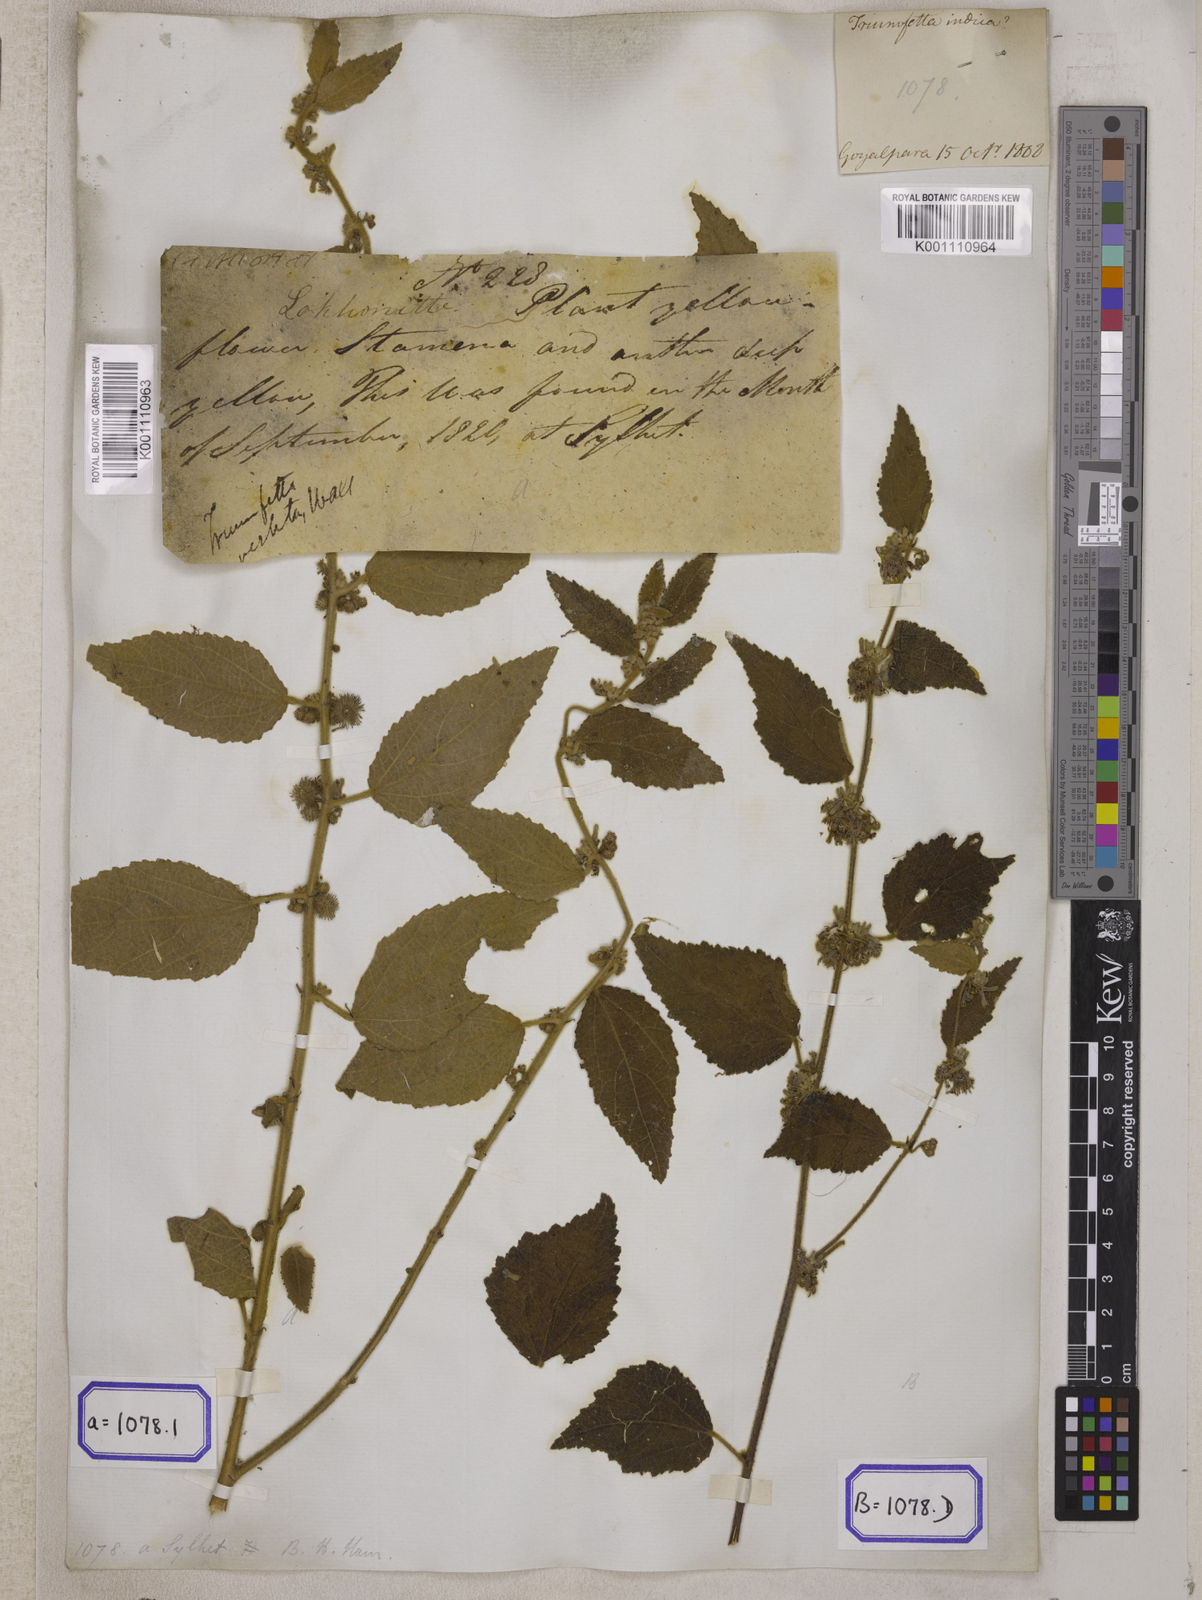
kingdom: Plantae
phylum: Tracheophyta
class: Magnoliopsida
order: Malvales
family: Malvaceae
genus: Triumfetta
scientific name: Triumfetta
